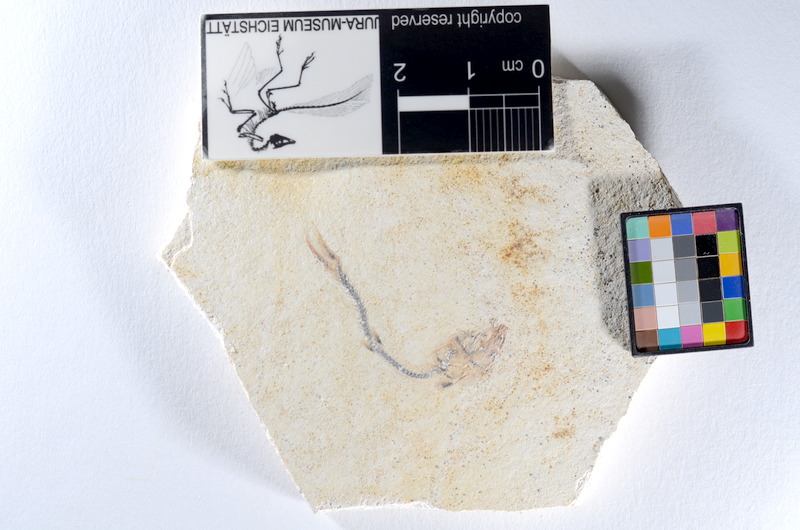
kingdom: Animalia
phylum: Chordata
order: Salmoniformes
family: Orthogonikleithridae
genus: Orthogonikleithrus
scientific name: Orthogonikleithrus hoelli
